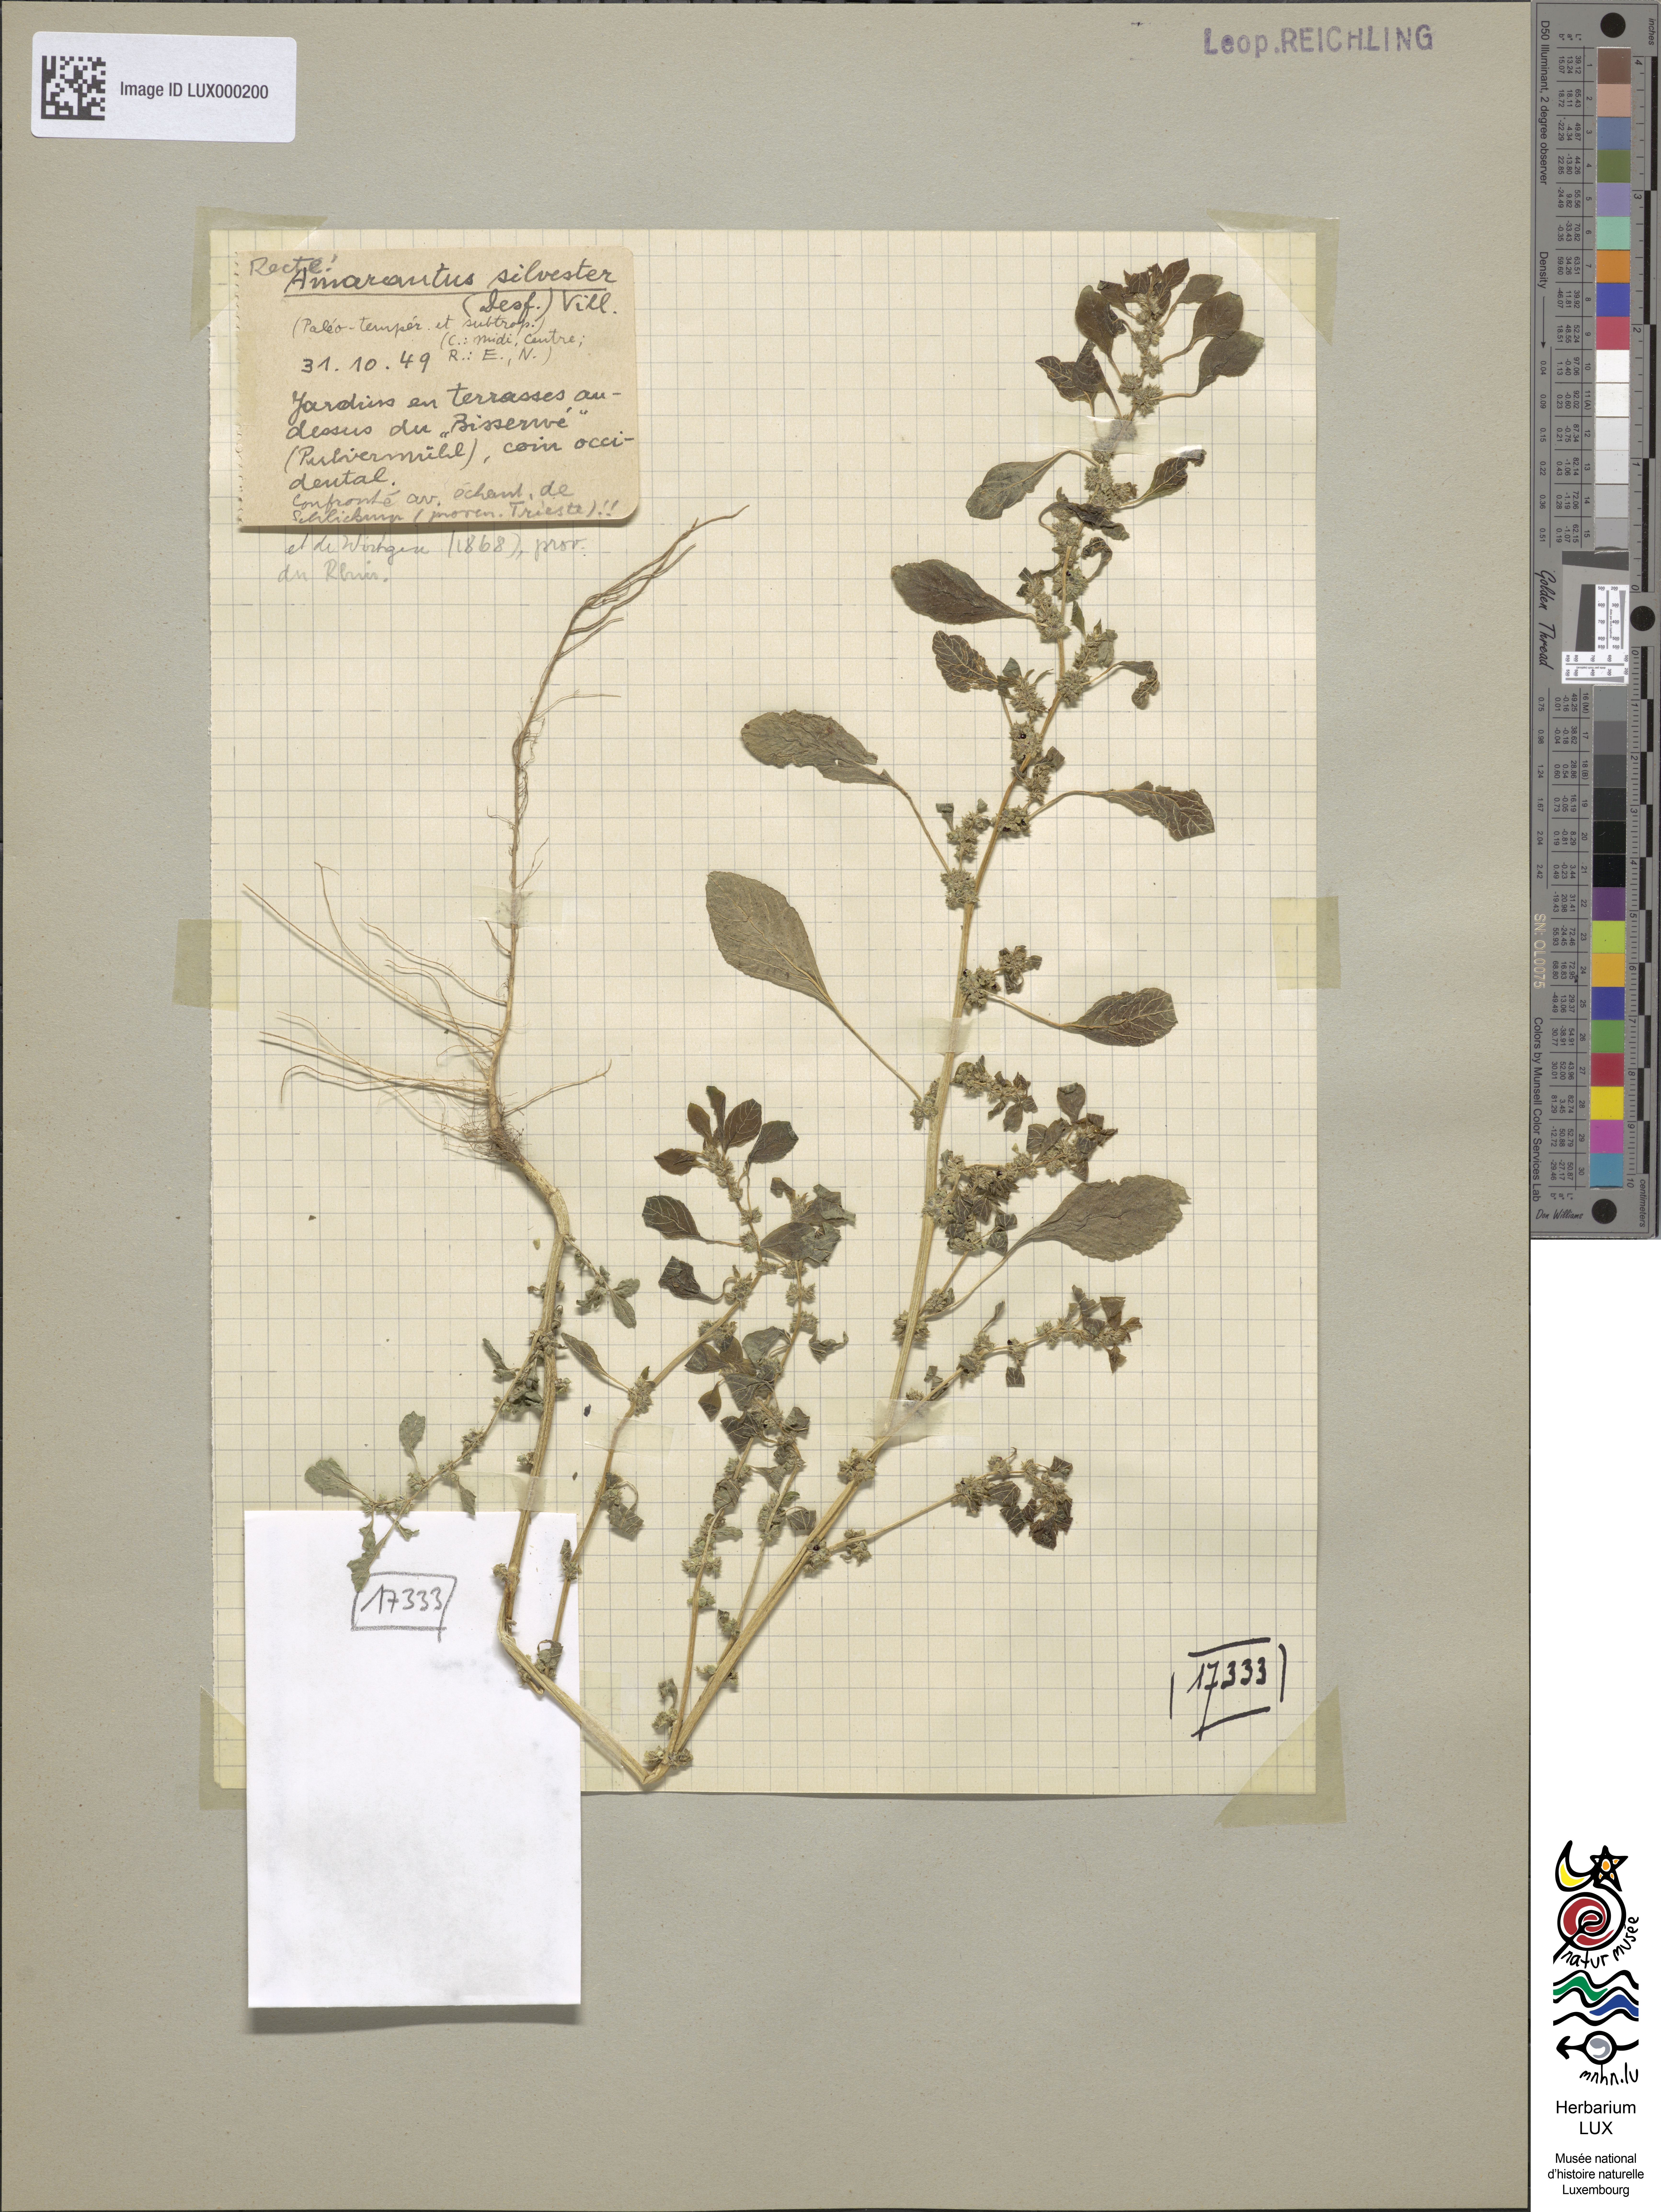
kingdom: Plantae
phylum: Tracheophyta
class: Magnoliopsida
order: Caryophyllales
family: Amaranthaceae
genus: Amaranthus
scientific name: Amaranthus
